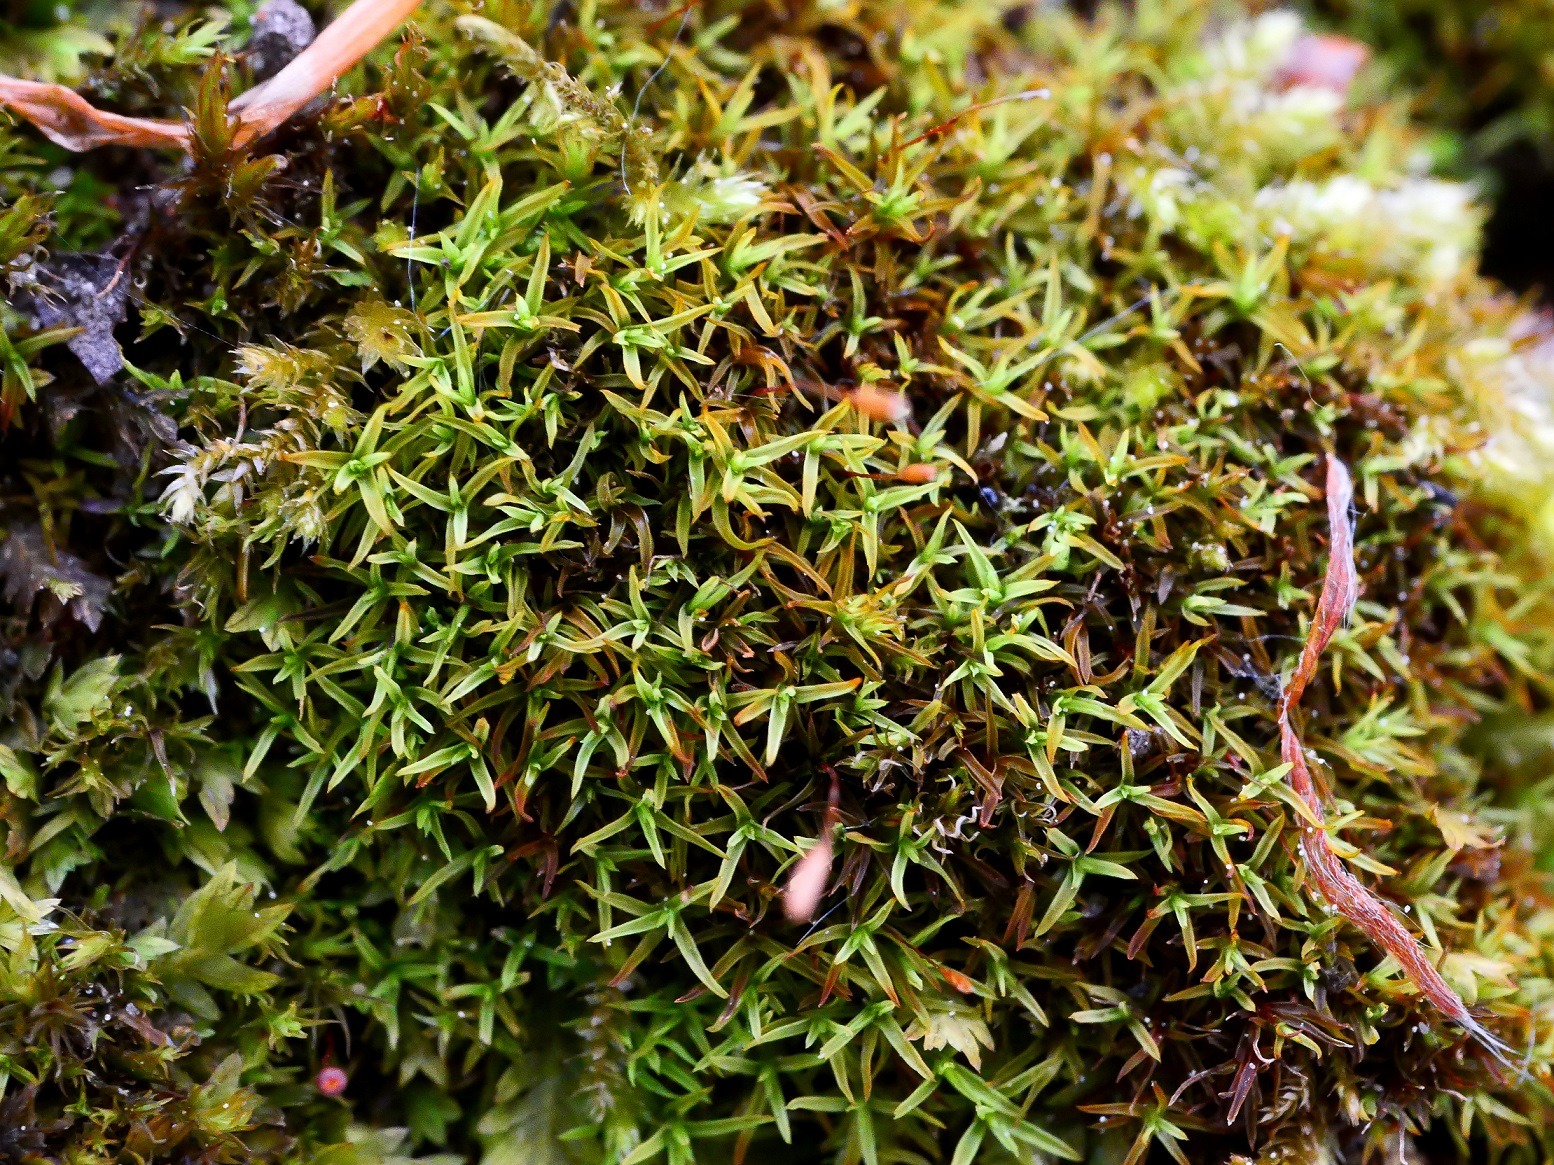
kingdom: Plantae
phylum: Bryophyta
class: Bryopsida
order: Pottiales
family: Pottiaceae
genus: Bryoerythrophyllum
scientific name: Bryoerythrophyllum recurvirostrum
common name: Rød gammelblad
